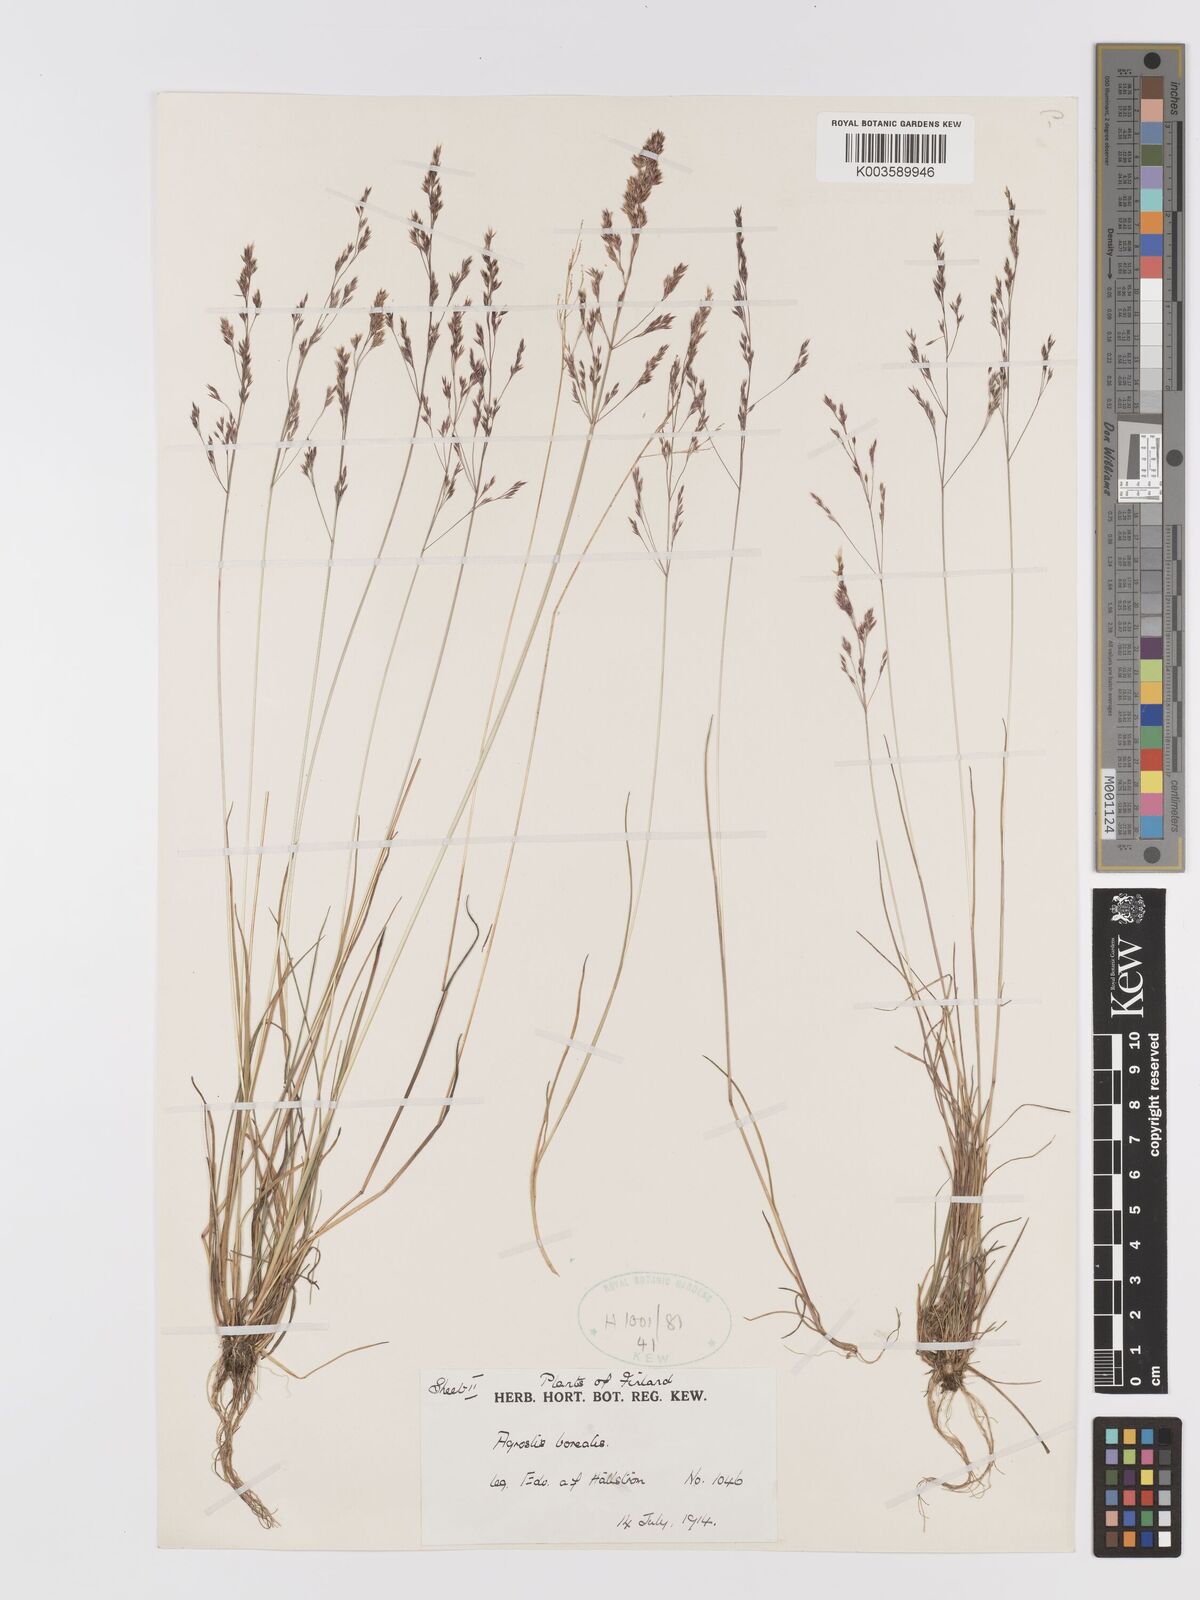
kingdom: Plantae
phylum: Tracheophyta
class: Liliopsida
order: Poales
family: Poaceae
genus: Agrostis
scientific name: Agrostis mertensii
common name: Northern bent
